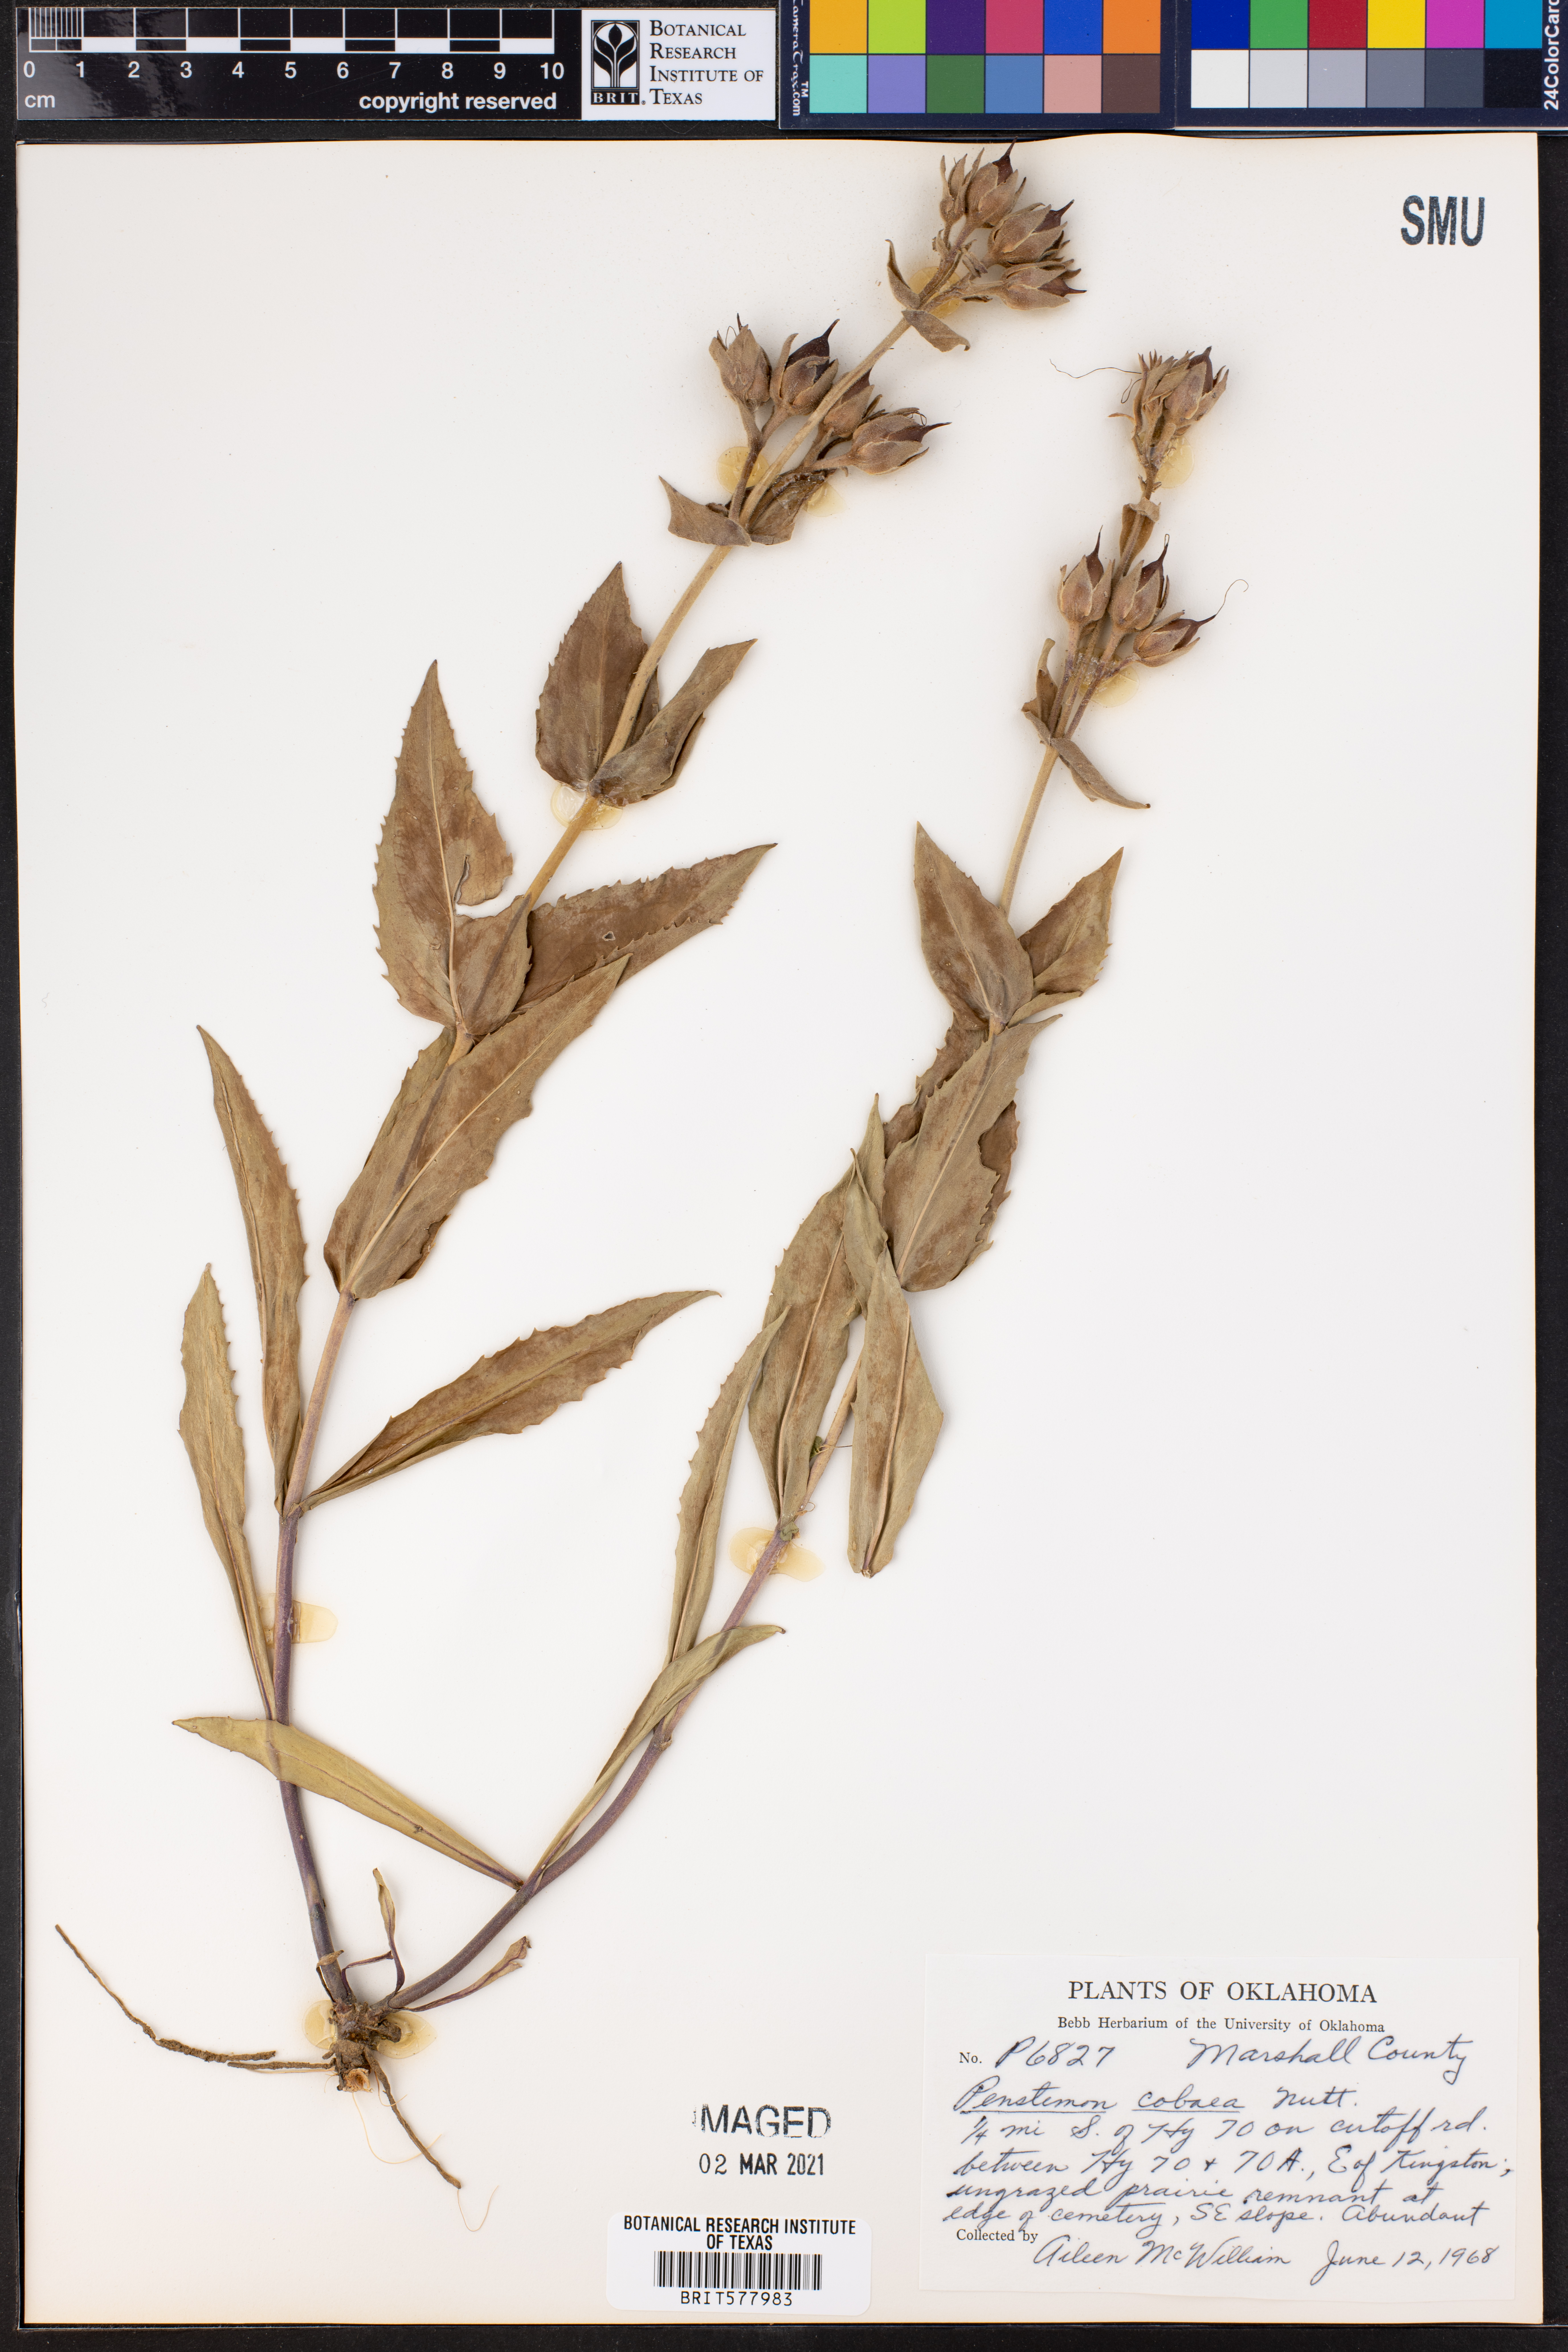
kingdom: Plantae
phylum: Tracheophyta
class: Magnoliopsida
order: Lamiales
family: Plantaginaceae
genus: Penstemon
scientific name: Penstemon cobaea
